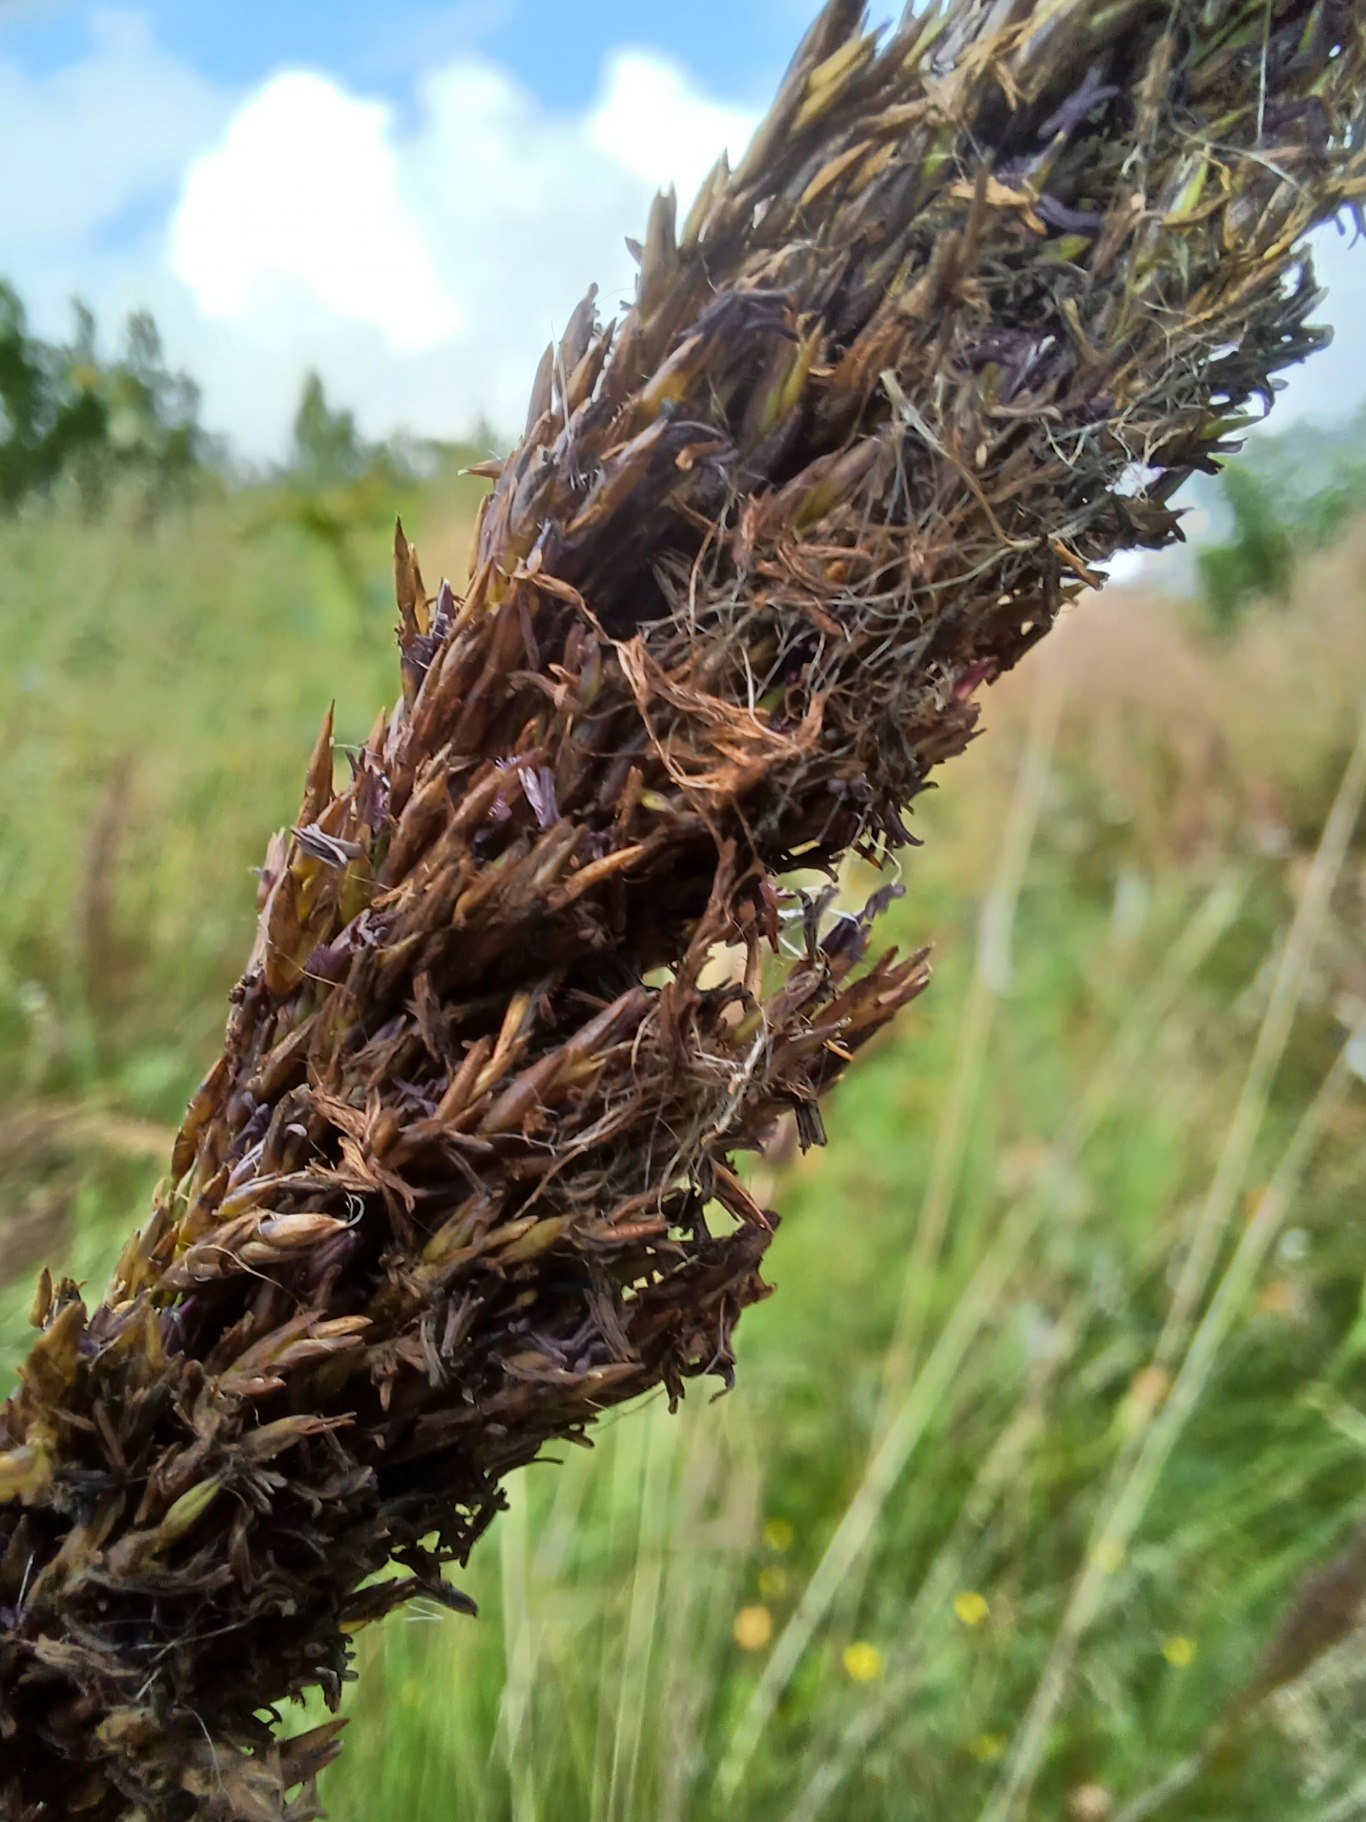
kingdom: Plantae
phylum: Tracheophyta
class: Liliopsida
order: Poales
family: Poaceae
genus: Molinia
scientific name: Molinia caerulea
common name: Blåtop
